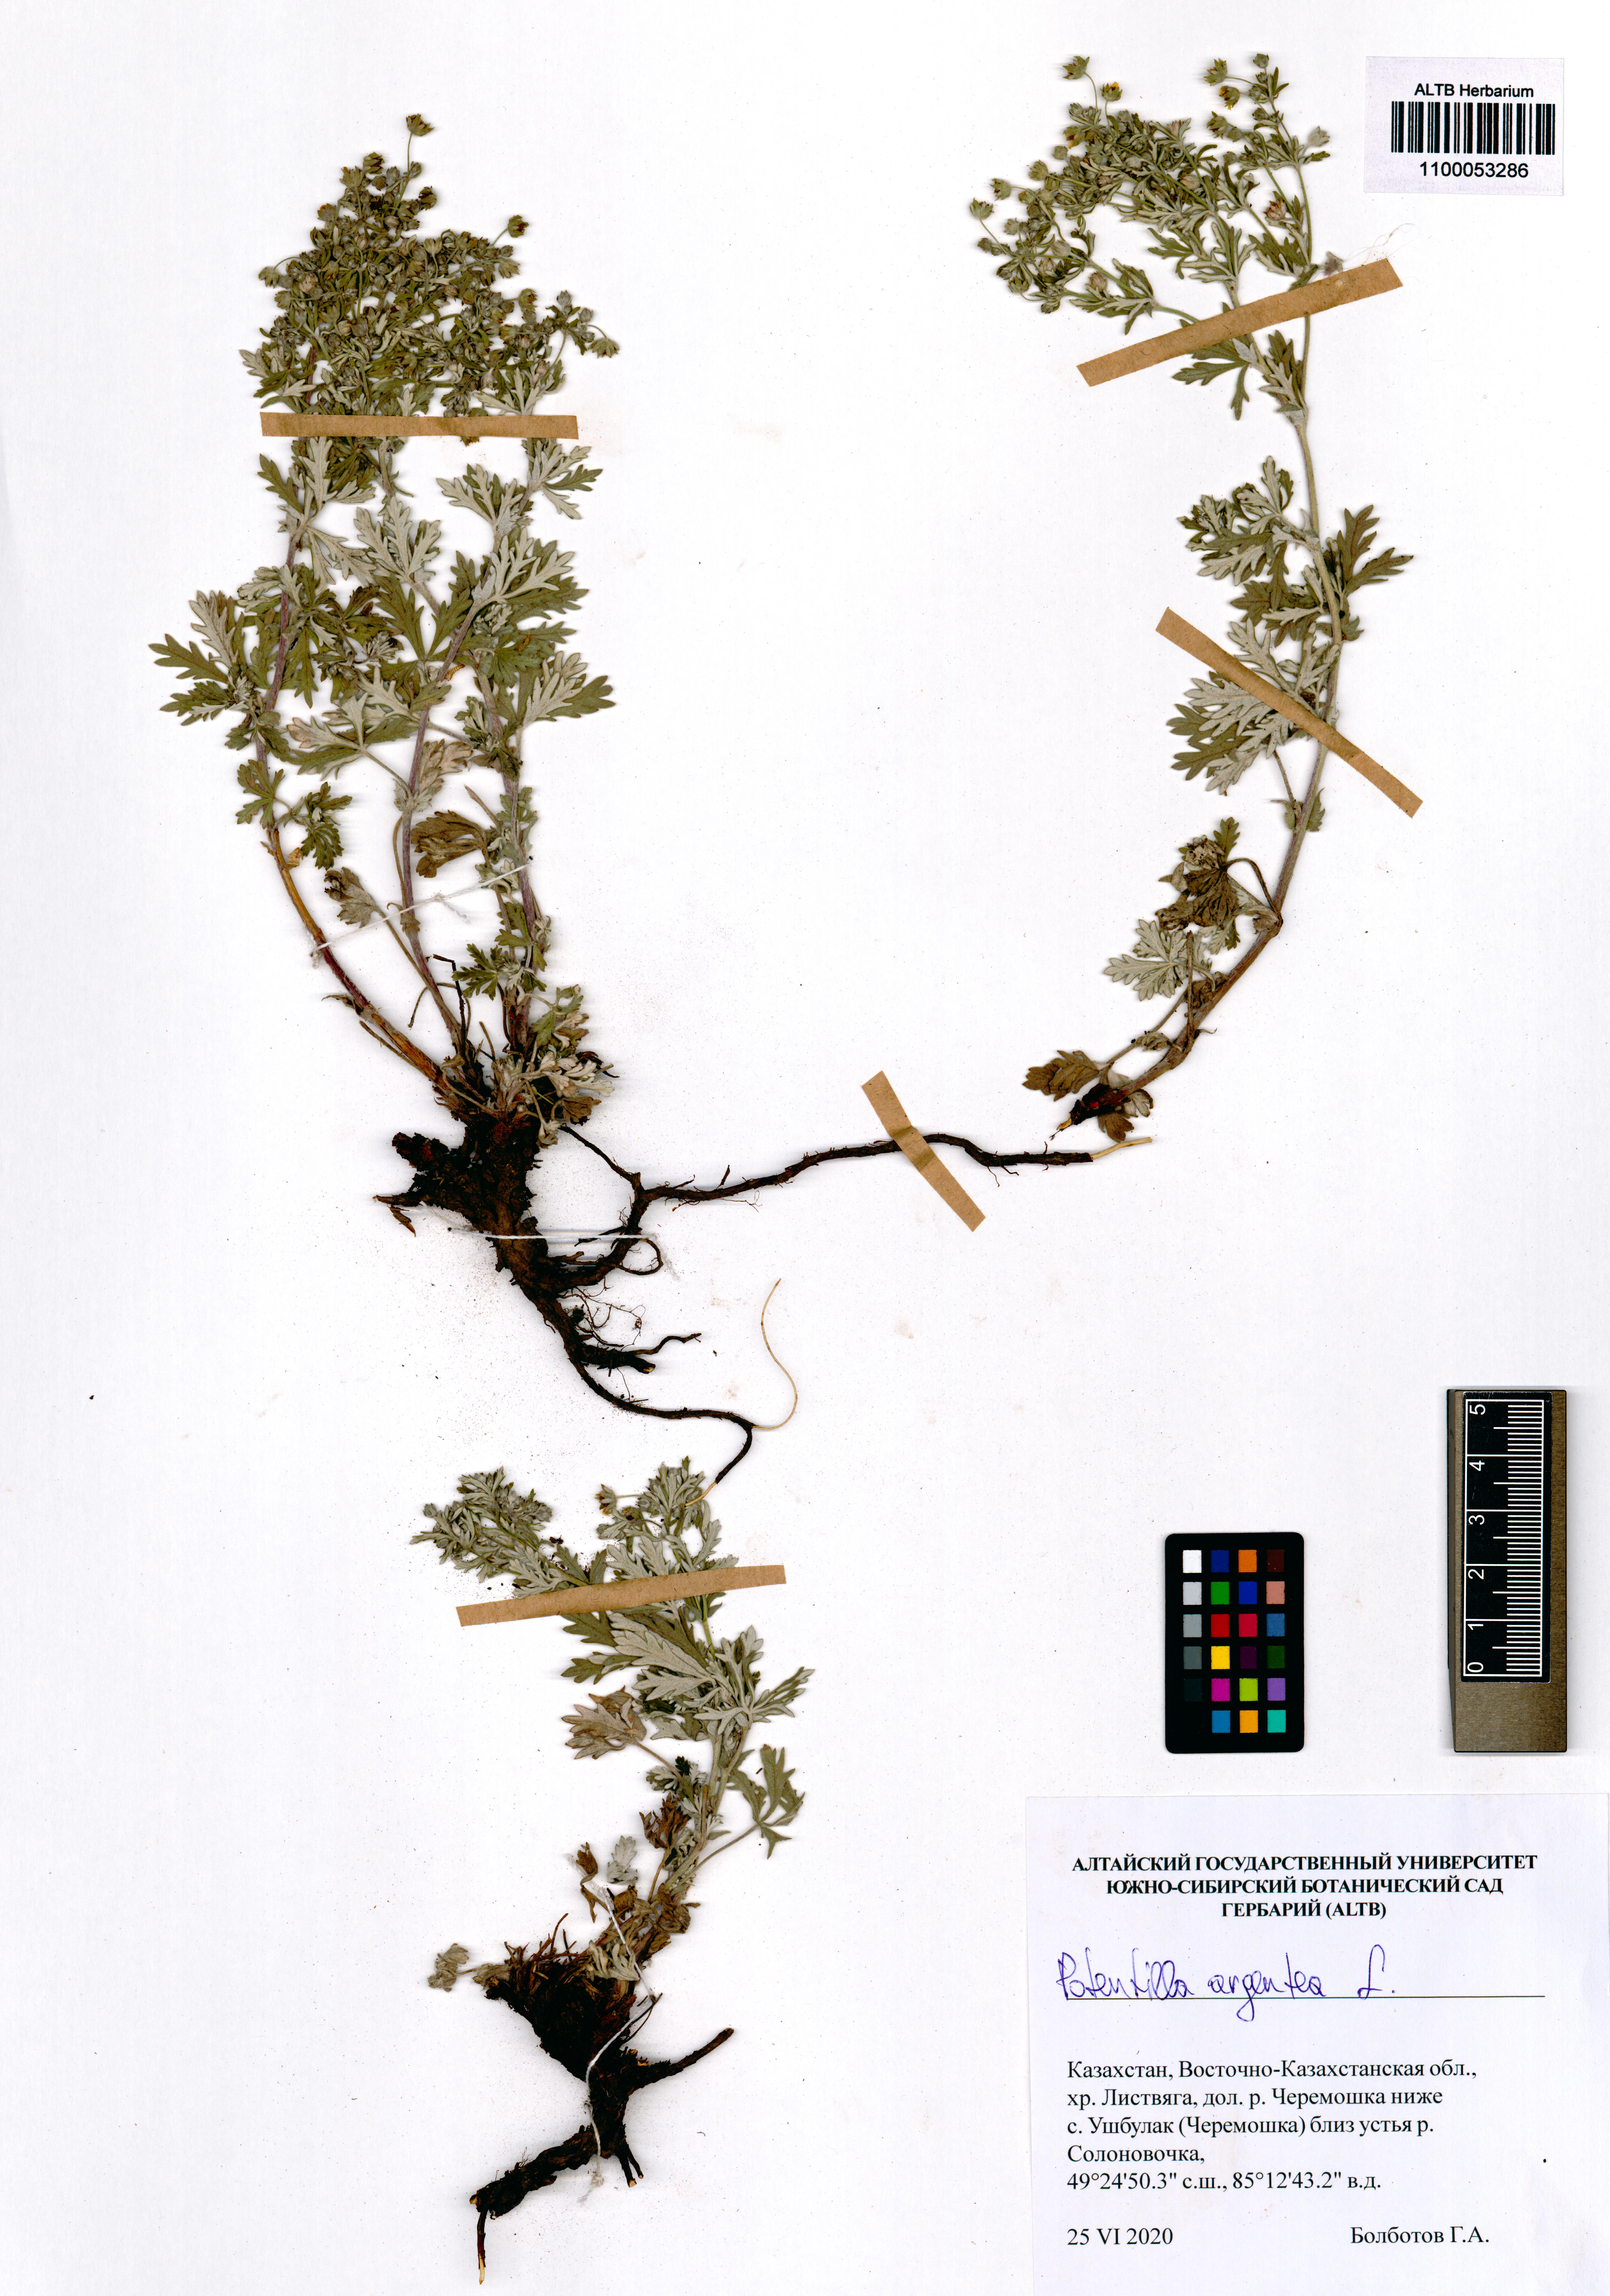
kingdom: Plantae
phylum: Tracheophyta
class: Magnoliopsida
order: Rosales
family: Rosaceae
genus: Potentilla
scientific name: Potentilla argentea
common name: Hoary cinquefoil
